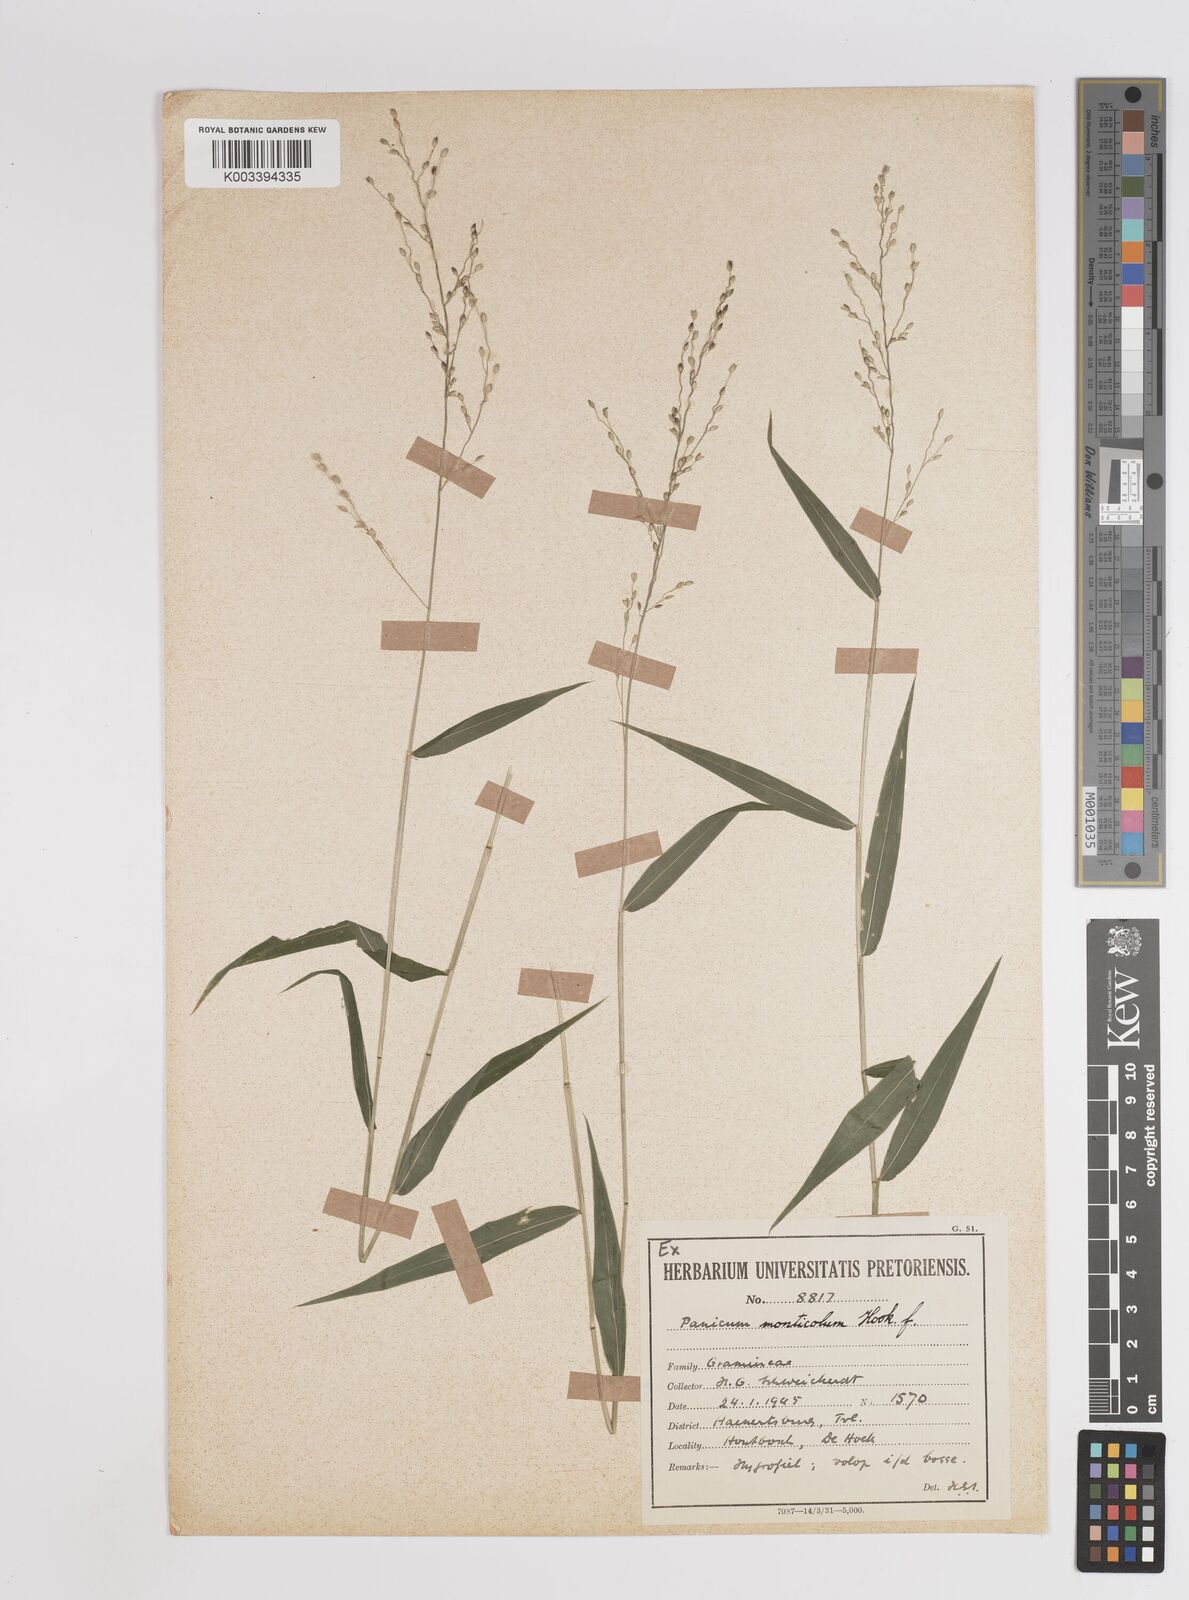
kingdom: Plantae
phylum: Tracheophyta
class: Liliopsida
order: Poales
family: Poaceae
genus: Panicum
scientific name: Panicum monticola
